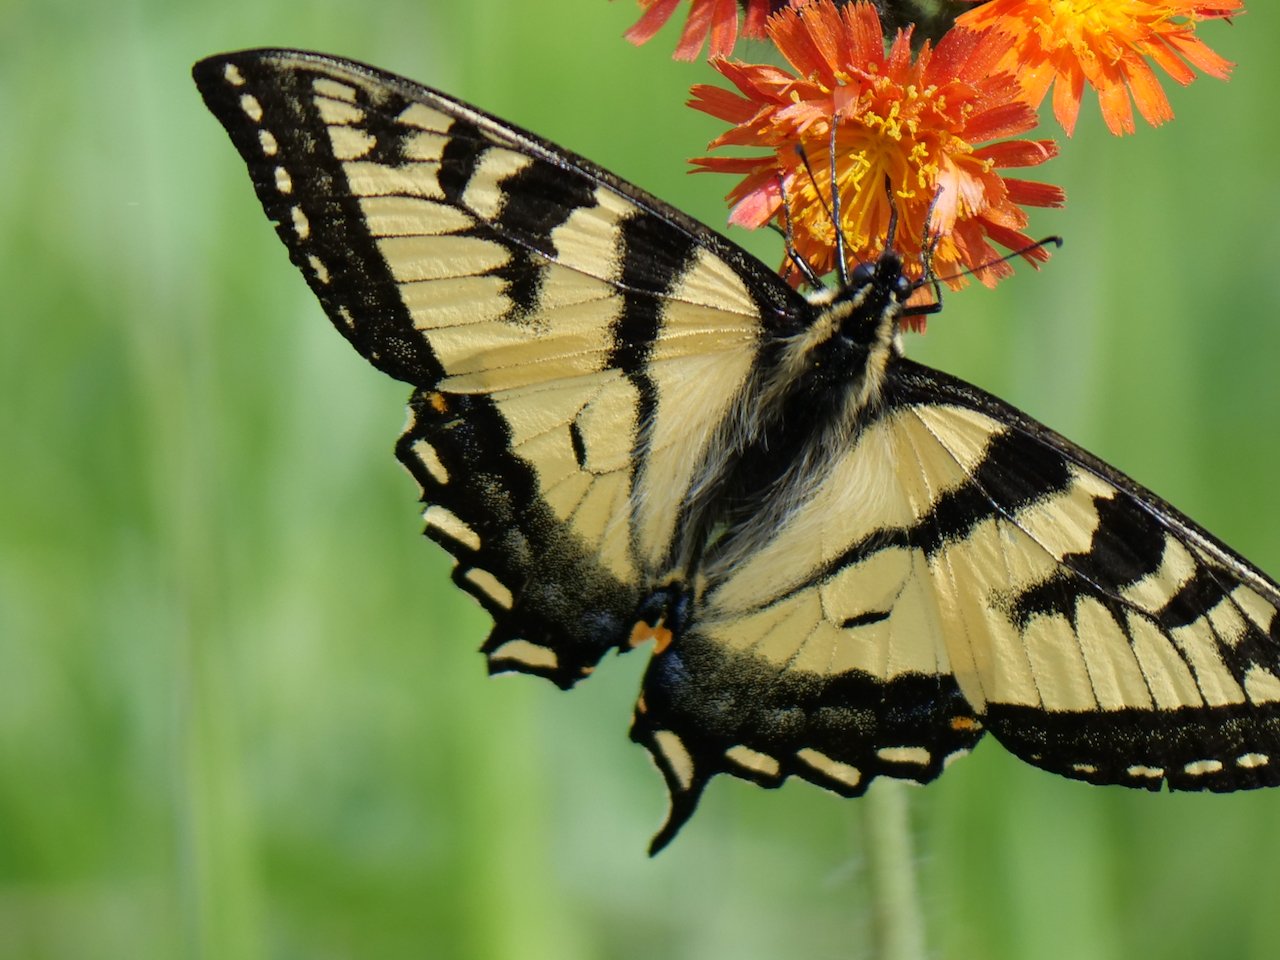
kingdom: Animalia
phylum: Arthropoda
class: Insecta
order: Lepidoptera
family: Papilionidae
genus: Pterourus
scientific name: Pterourus canadensis
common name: Canadian Tiger Swallowtail
